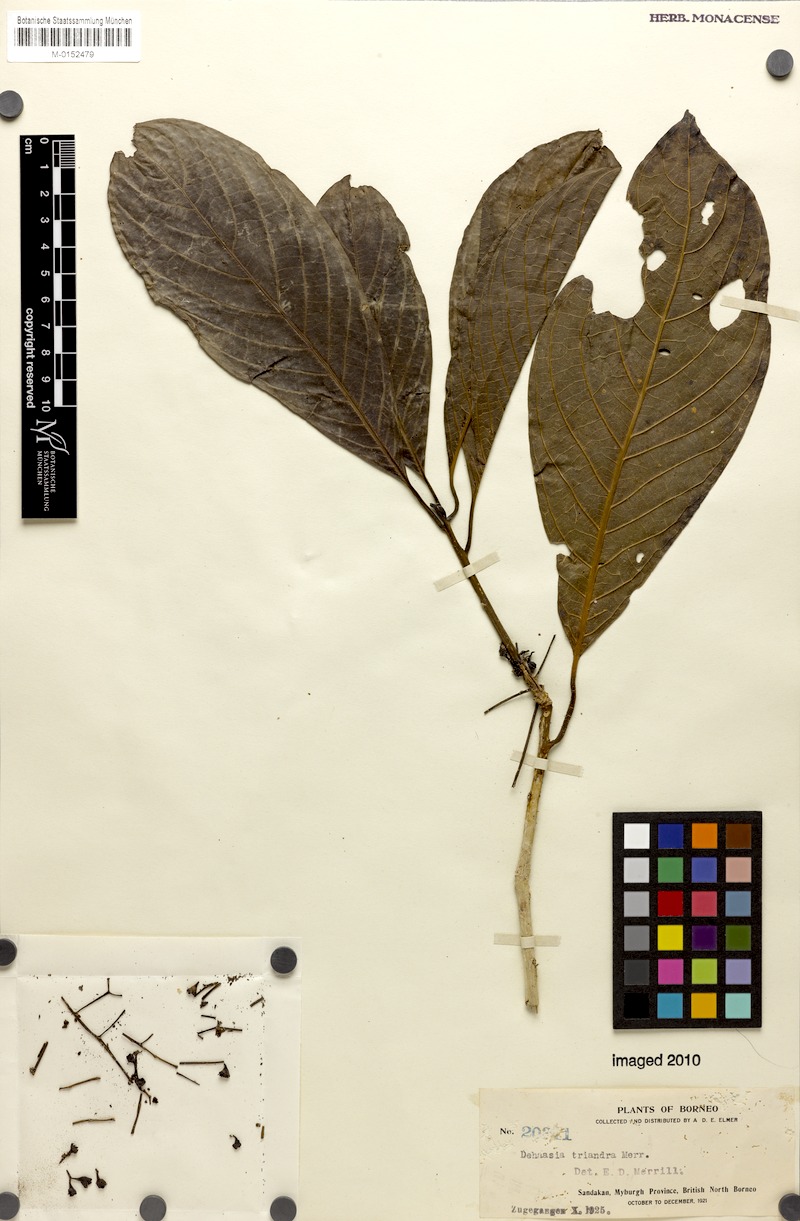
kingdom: Plantae
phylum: Tracheophyta
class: Magnoliopsida
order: Laurales
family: Lauraceae
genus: Dehaasia
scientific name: Dehaasia incrassata
